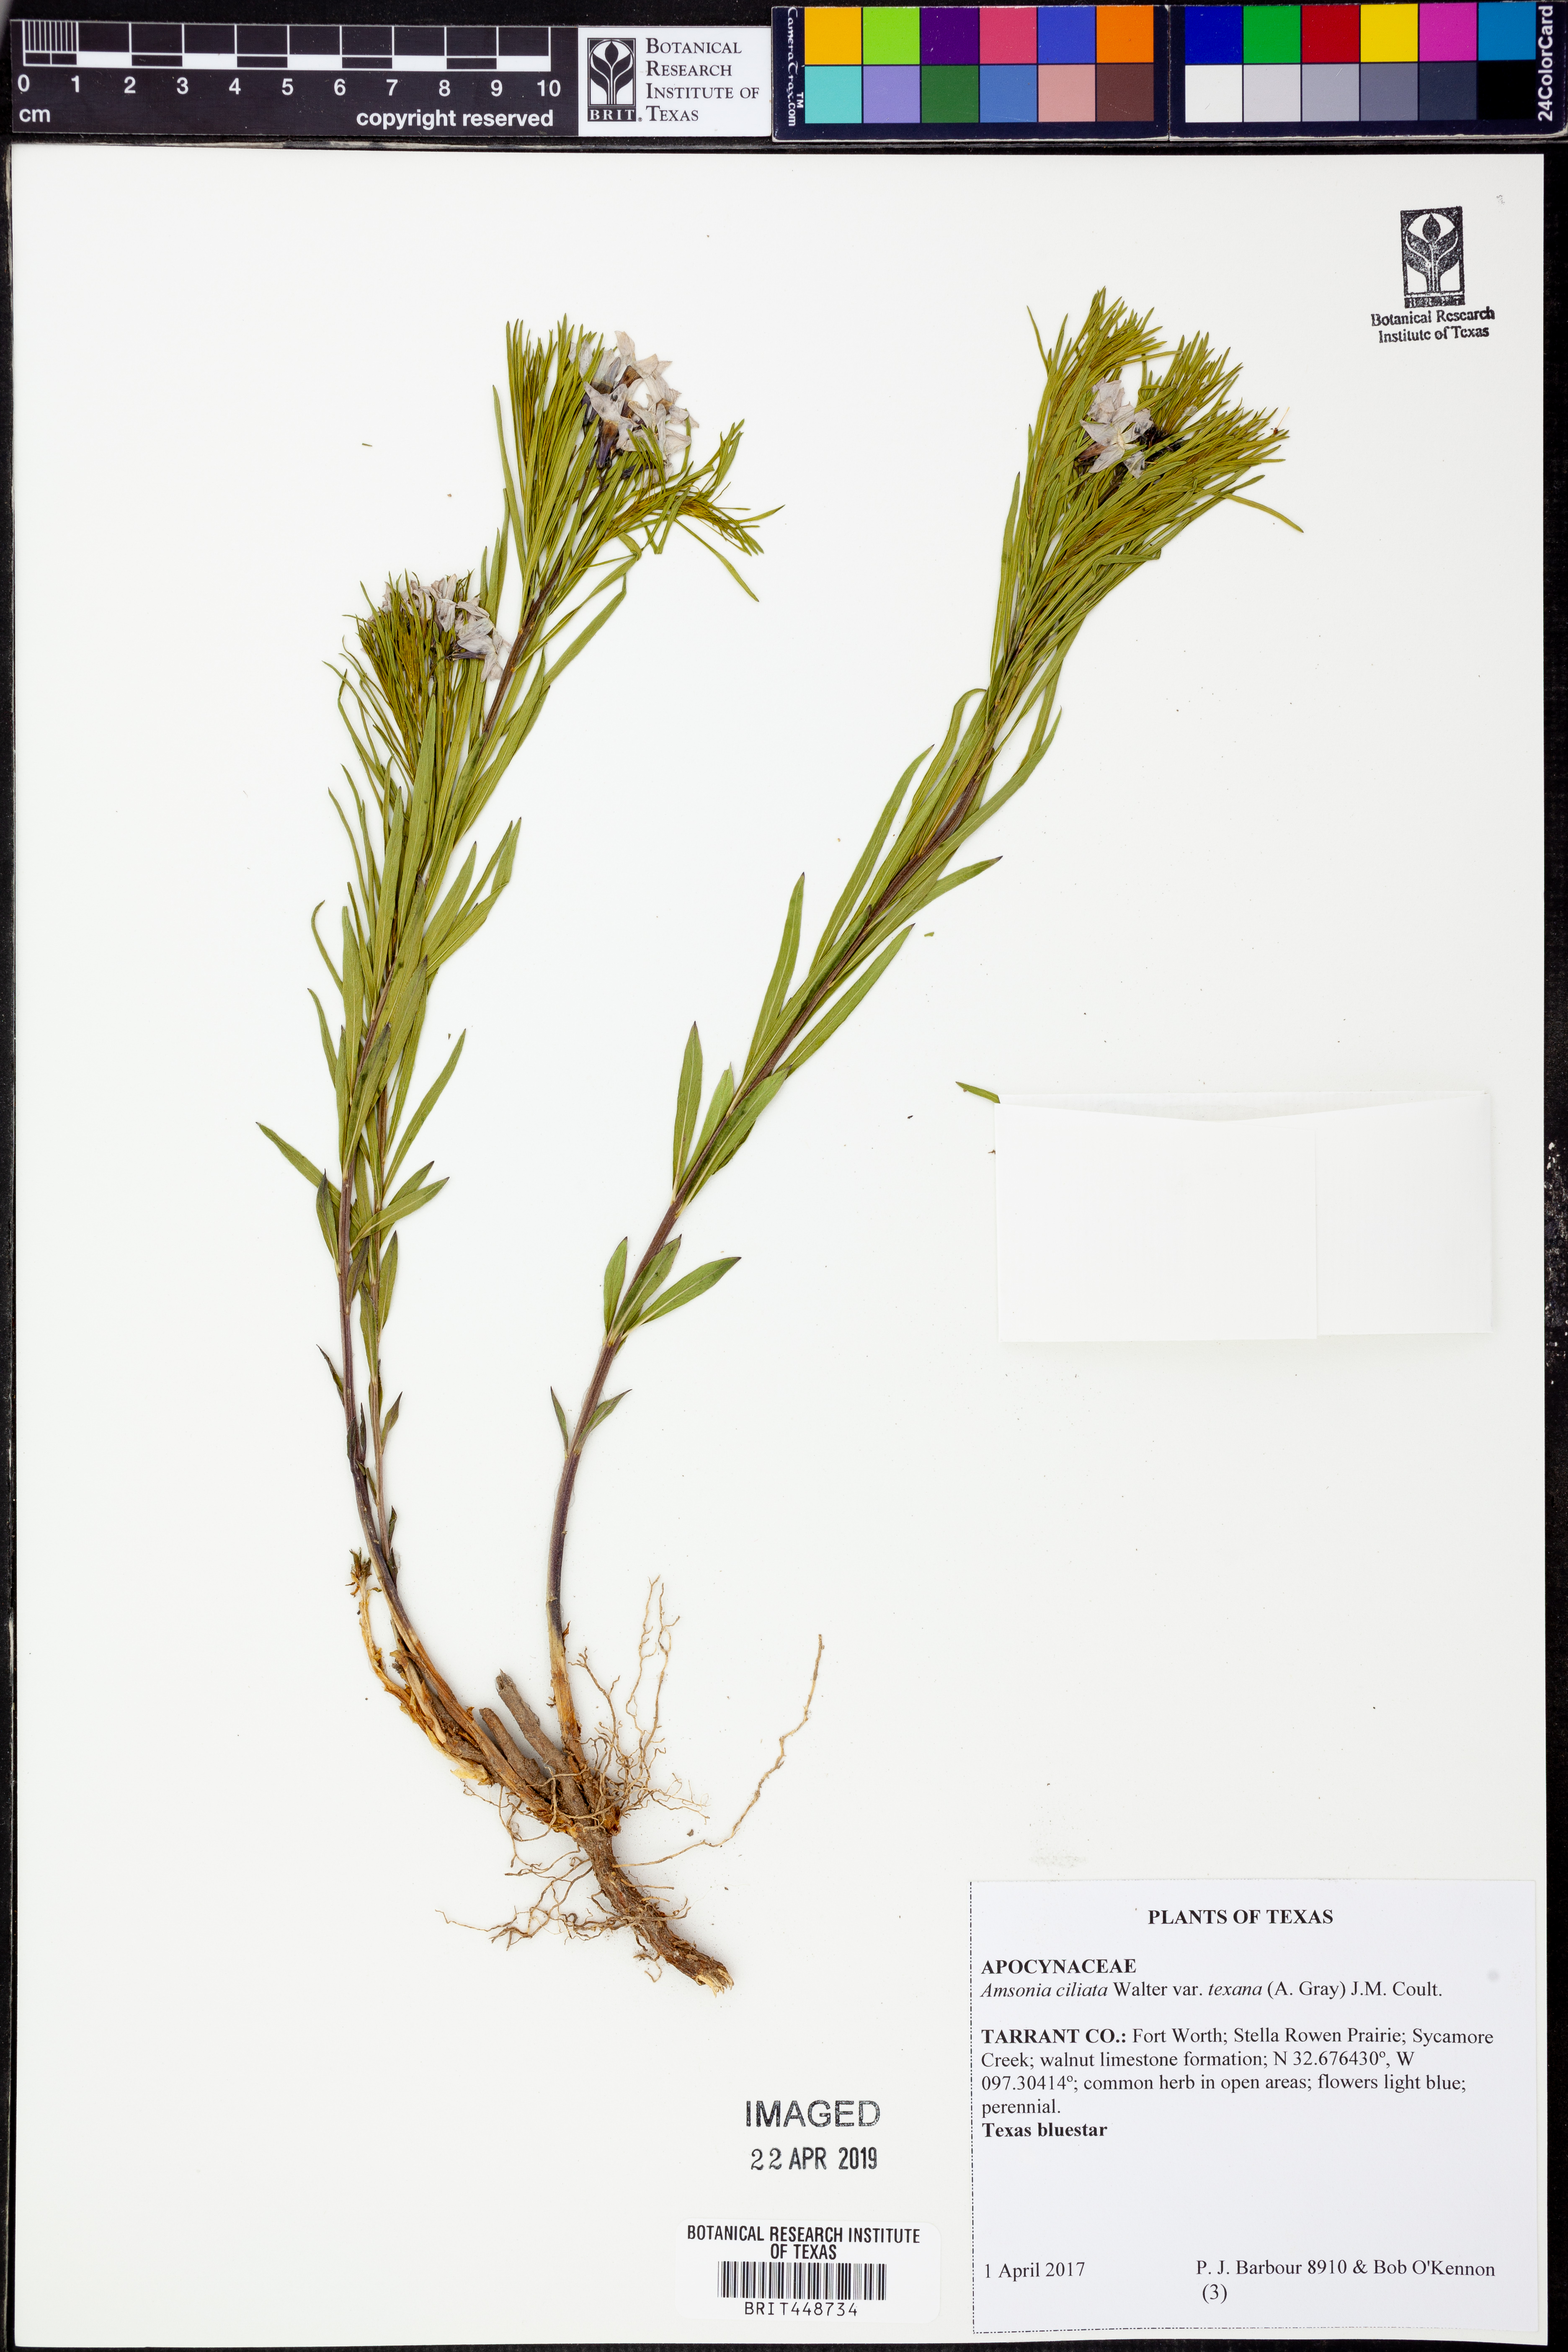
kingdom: Plantae
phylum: Tracheophyta
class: Magnoliopsida
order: Gentianales
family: Apocynaceae
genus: Amsonia
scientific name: Amsonia ciliata
